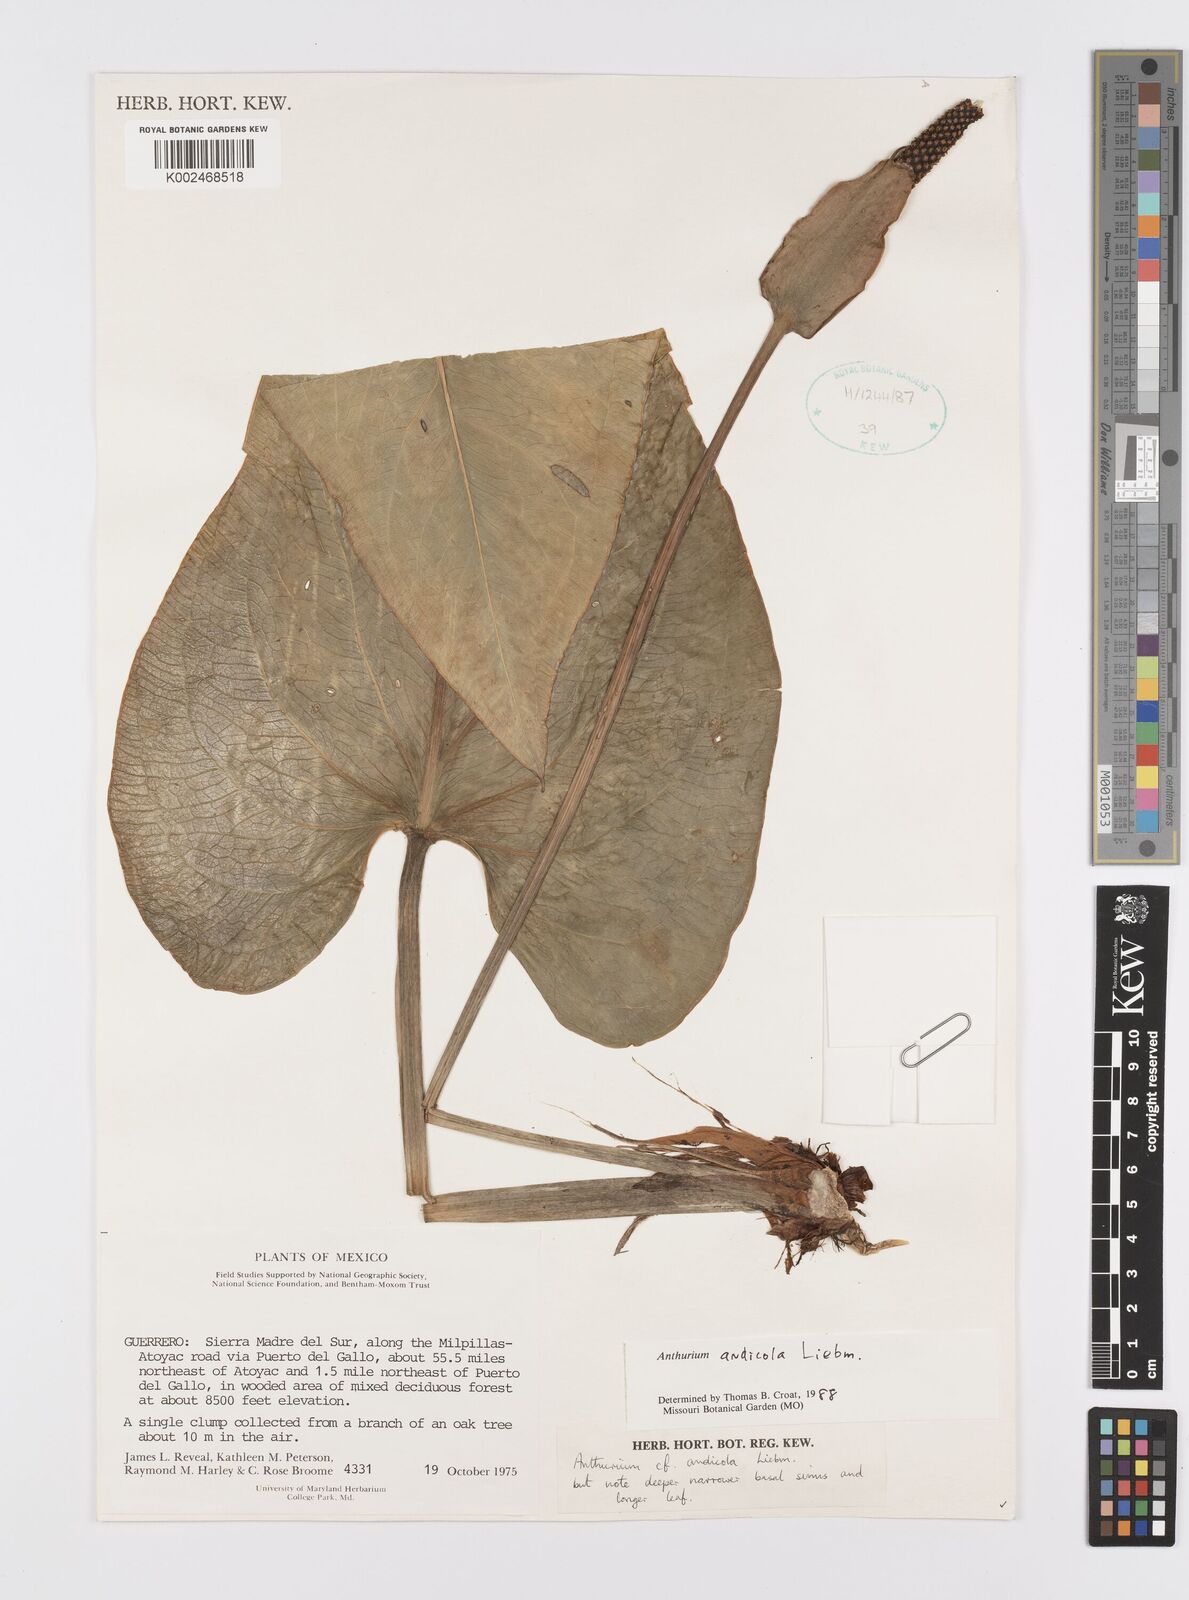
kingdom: Plantae
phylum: Tracheophyta
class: Liliopsida
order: Alismatales
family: Araceae
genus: Anthurium
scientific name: Anthurium andicola
